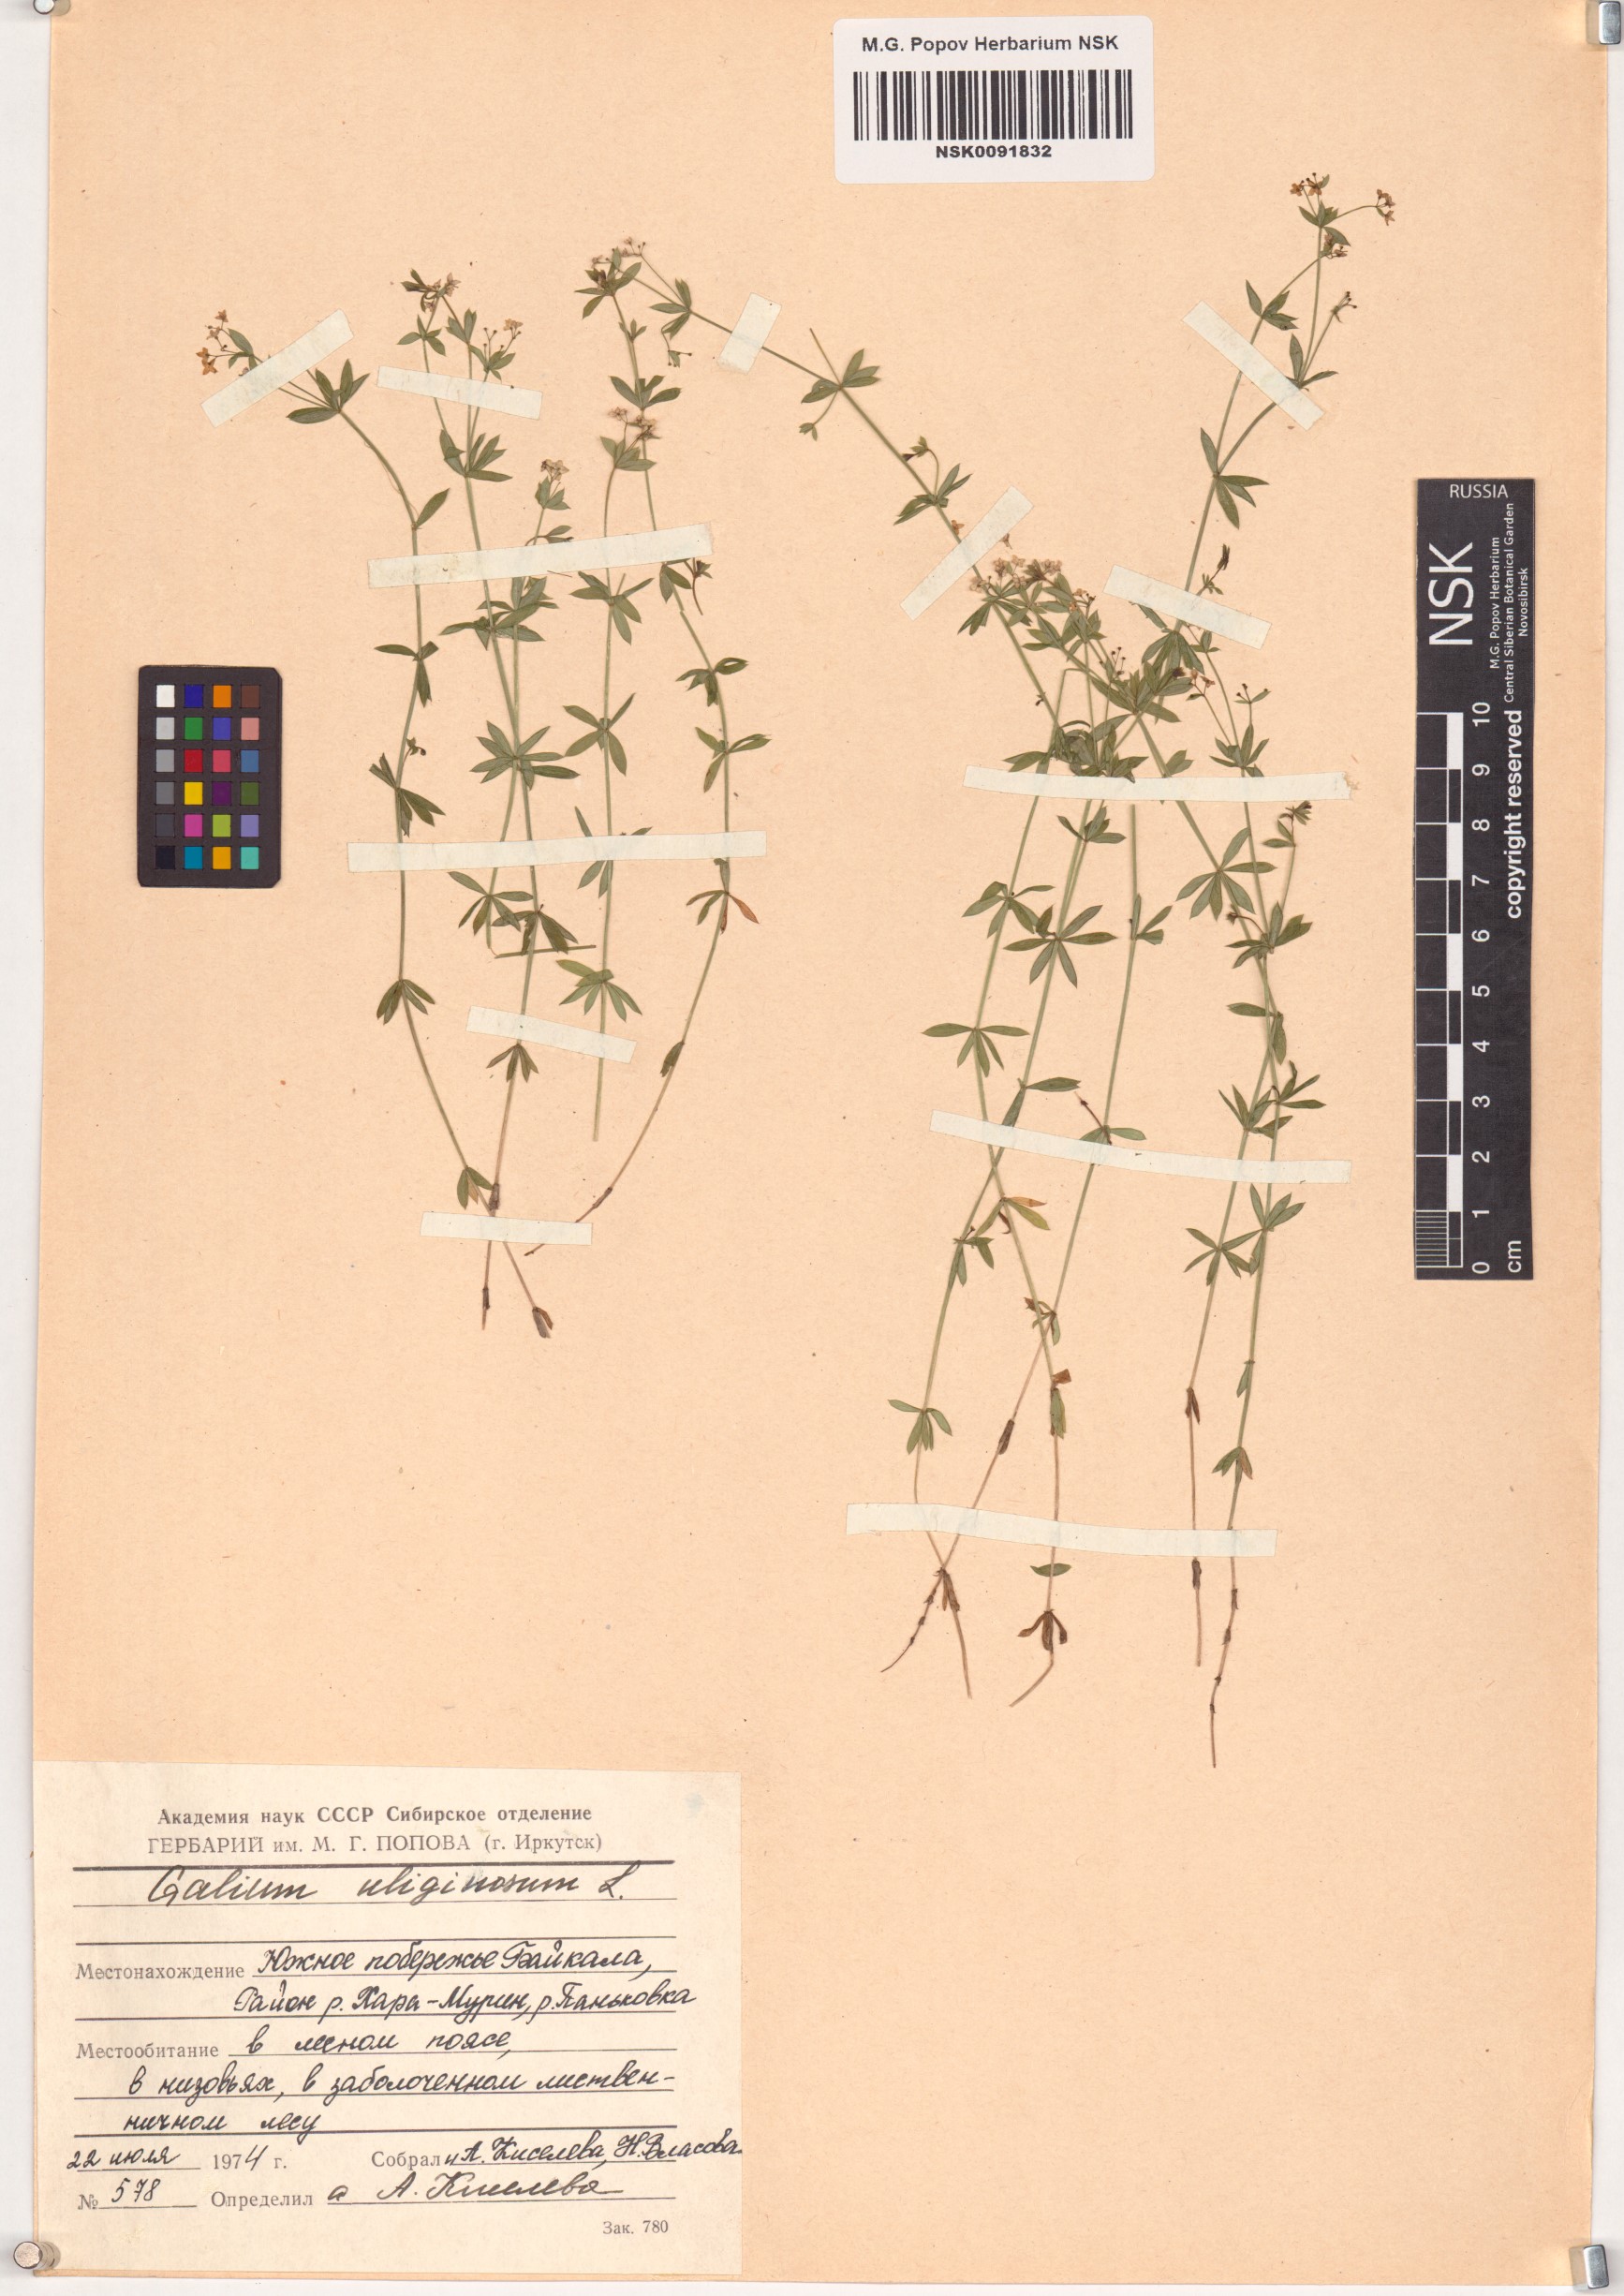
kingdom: Plantae
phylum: Tracheophyta
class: Magnoliopsida
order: Gentianales
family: Rubiaceae
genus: Galium
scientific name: Galium uliginosum
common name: Fen bedstraw
